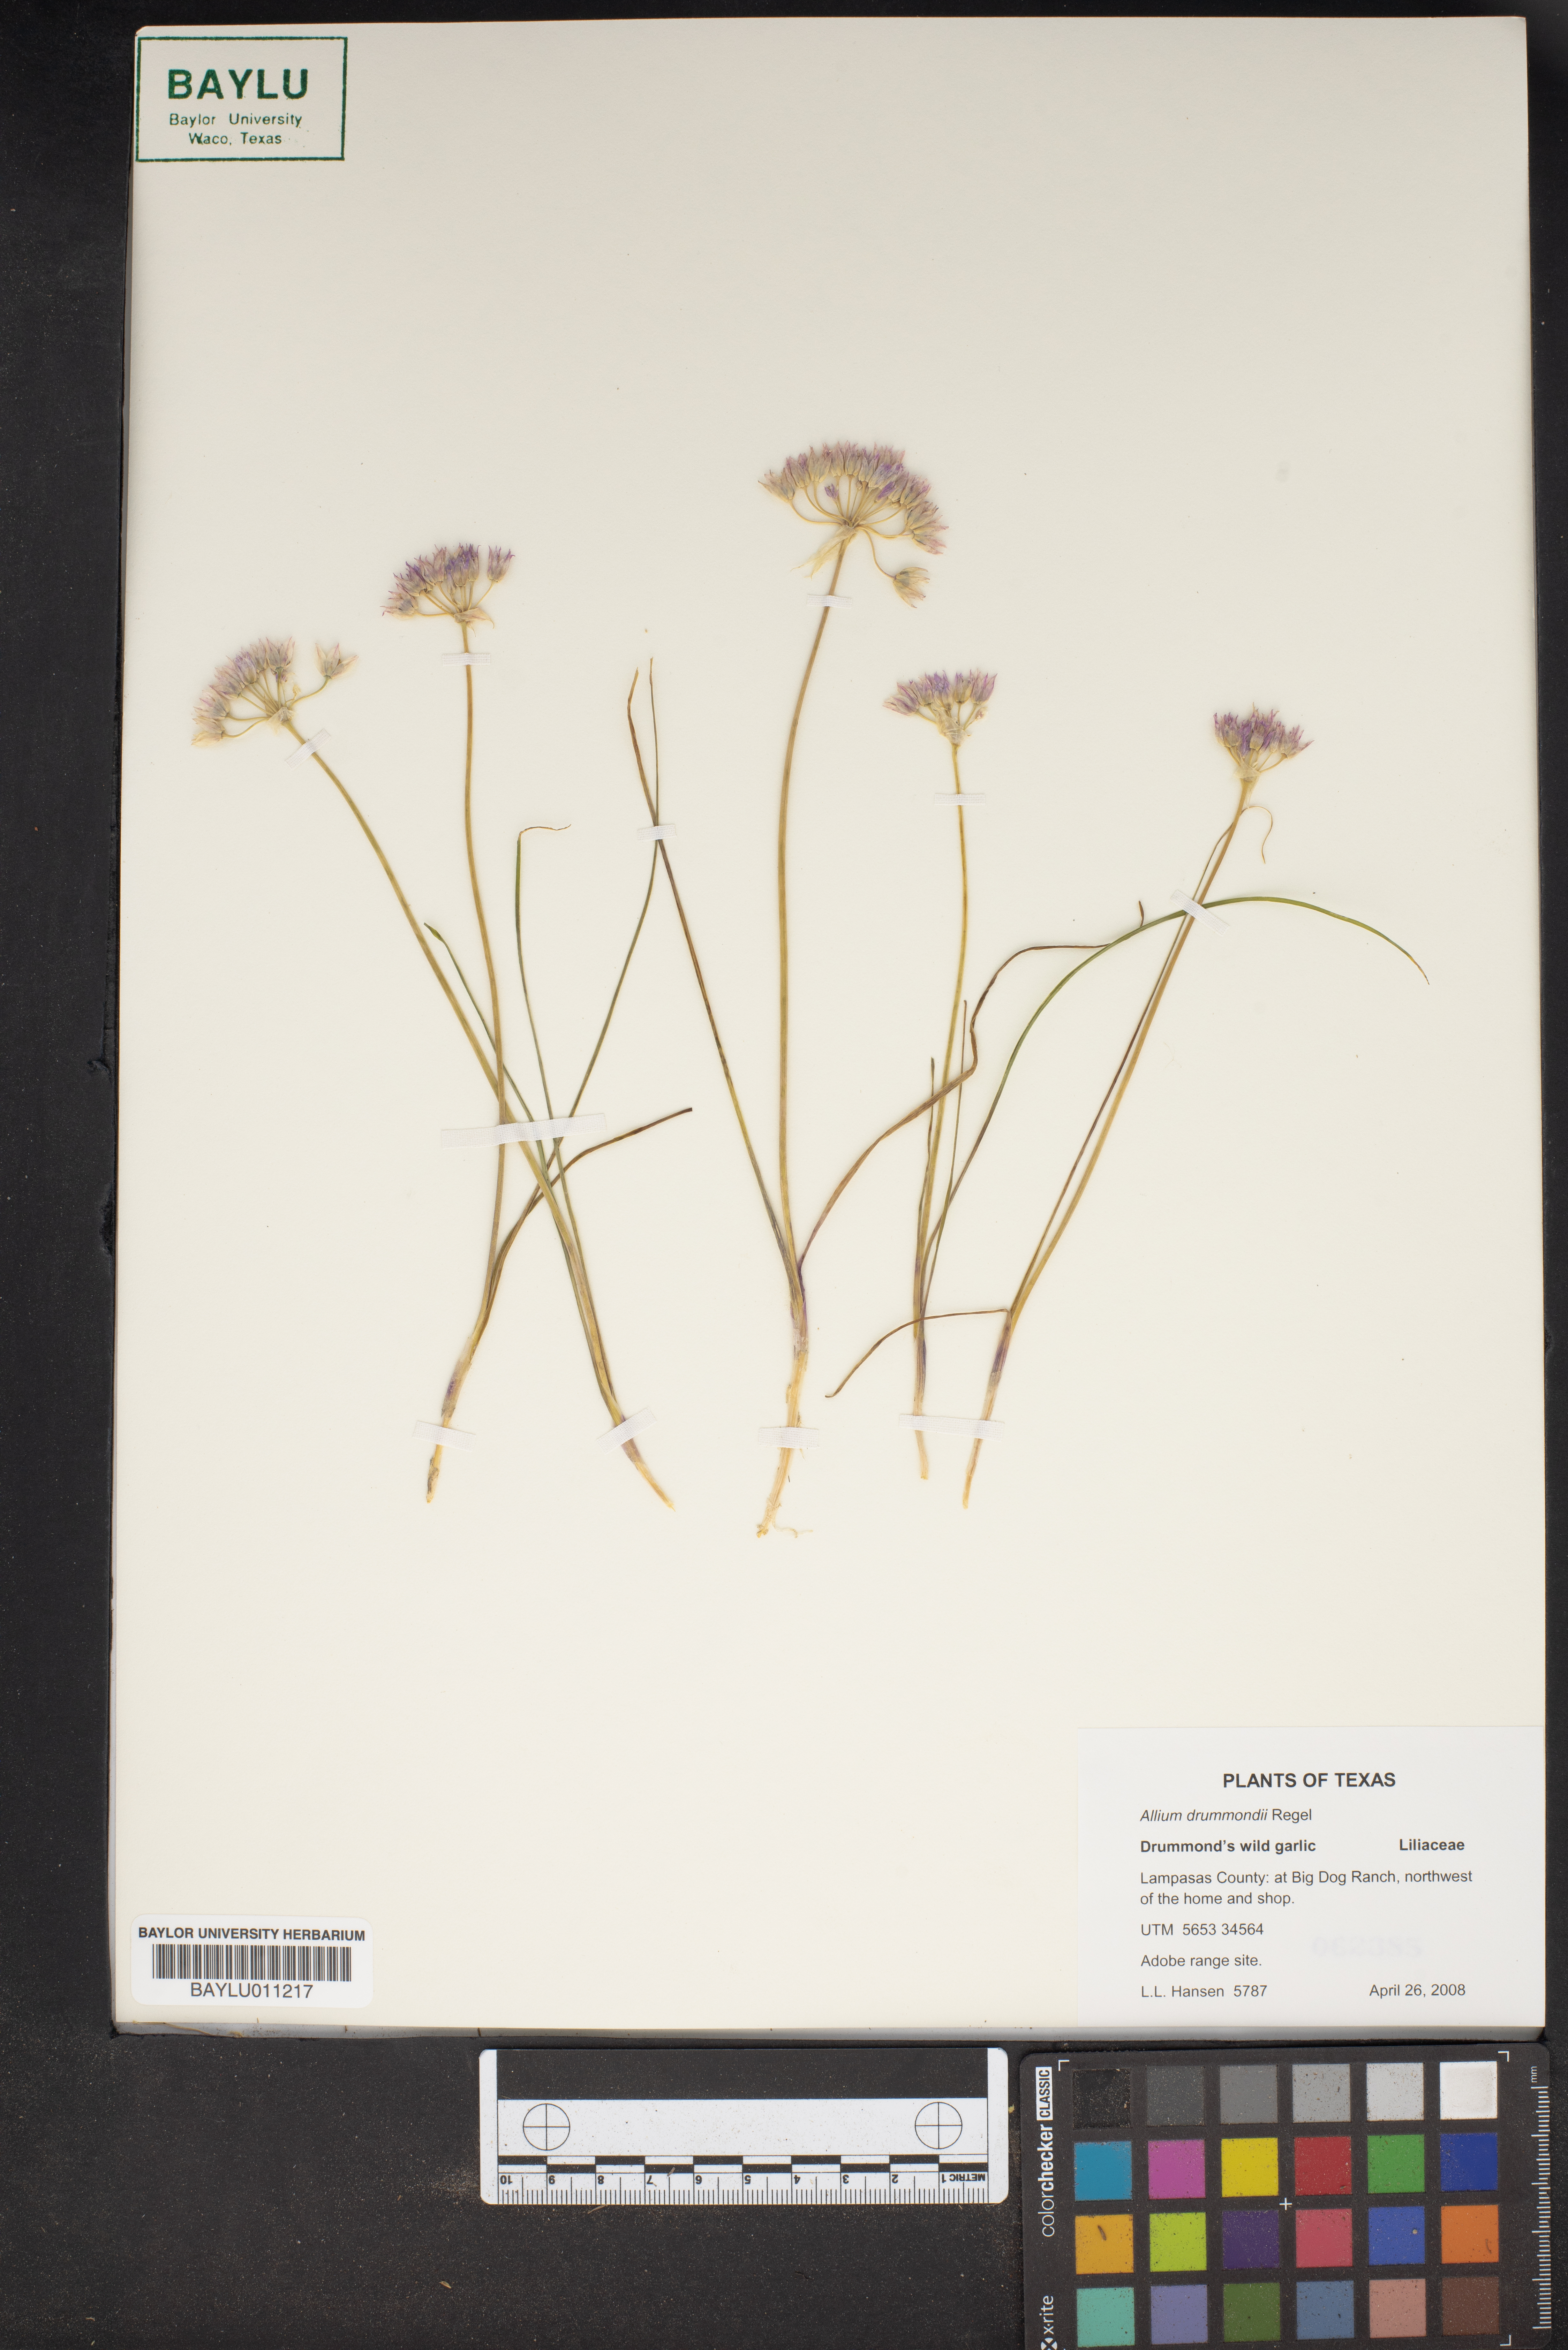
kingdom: Plantae
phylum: Tracheophyta
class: Liliopsida
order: Asparagales
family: Amaryllidaceae
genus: Allium
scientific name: Allium drummondii
